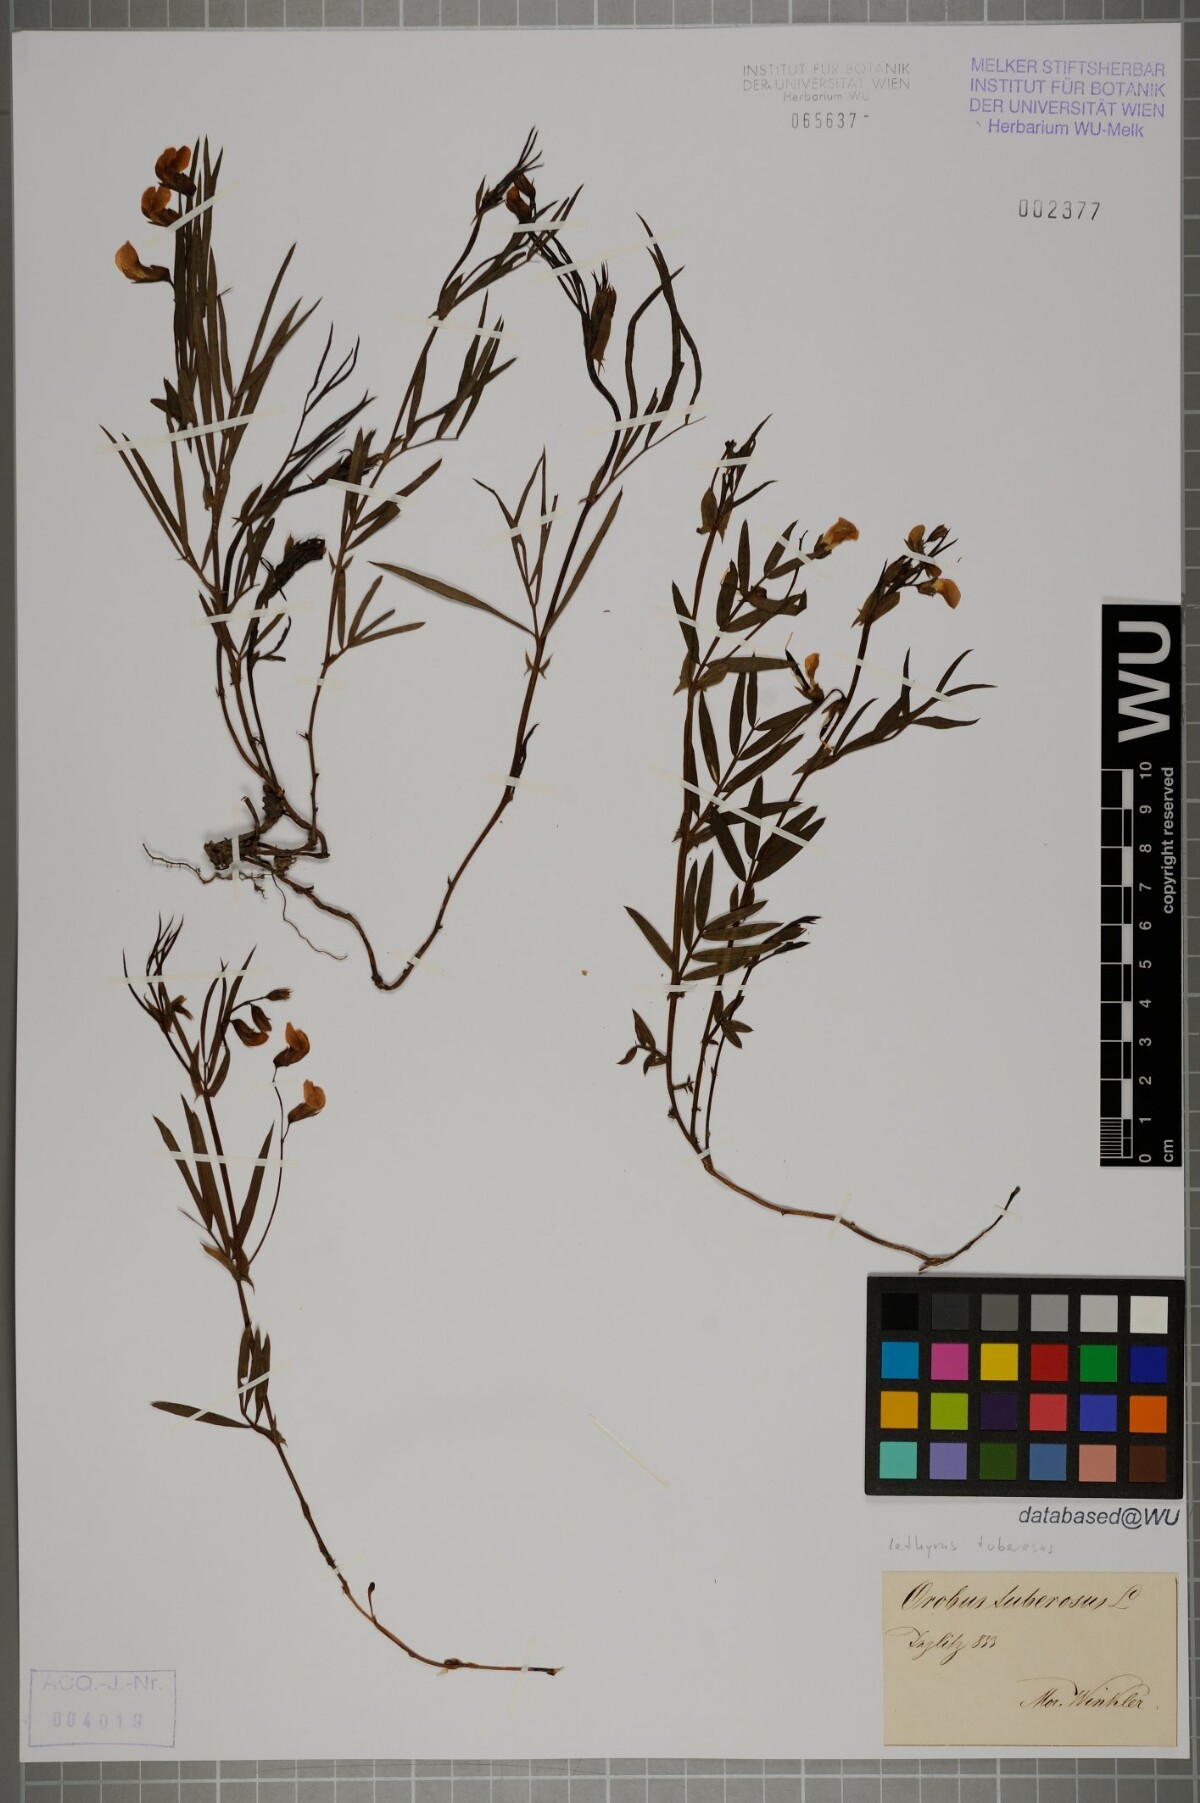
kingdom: Plantae
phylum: Tracheophyta
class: Magnoliopsida
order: Fabales
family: Fabaceae
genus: Lathyrus
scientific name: Lathyrus tuberosus
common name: Tuberous pea
